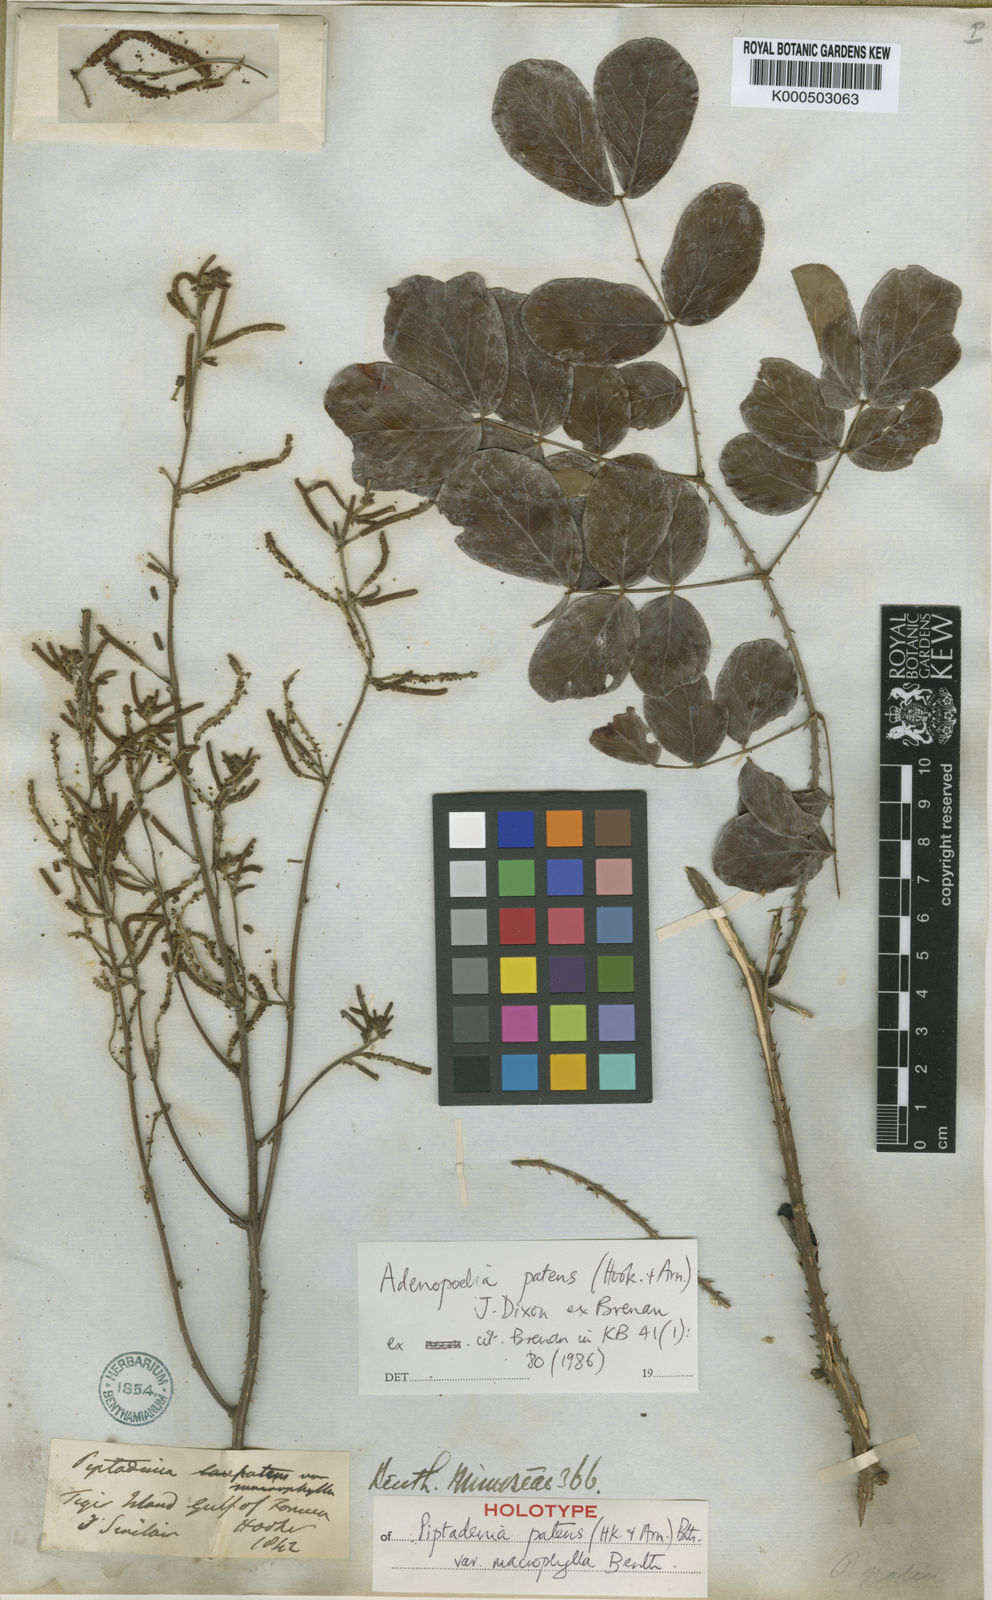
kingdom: Plantae
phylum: Tracheophyta
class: Magnoliopsida
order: Fabales
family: Fabaceae
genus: Adenopodia
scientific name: Adenopodia patens
